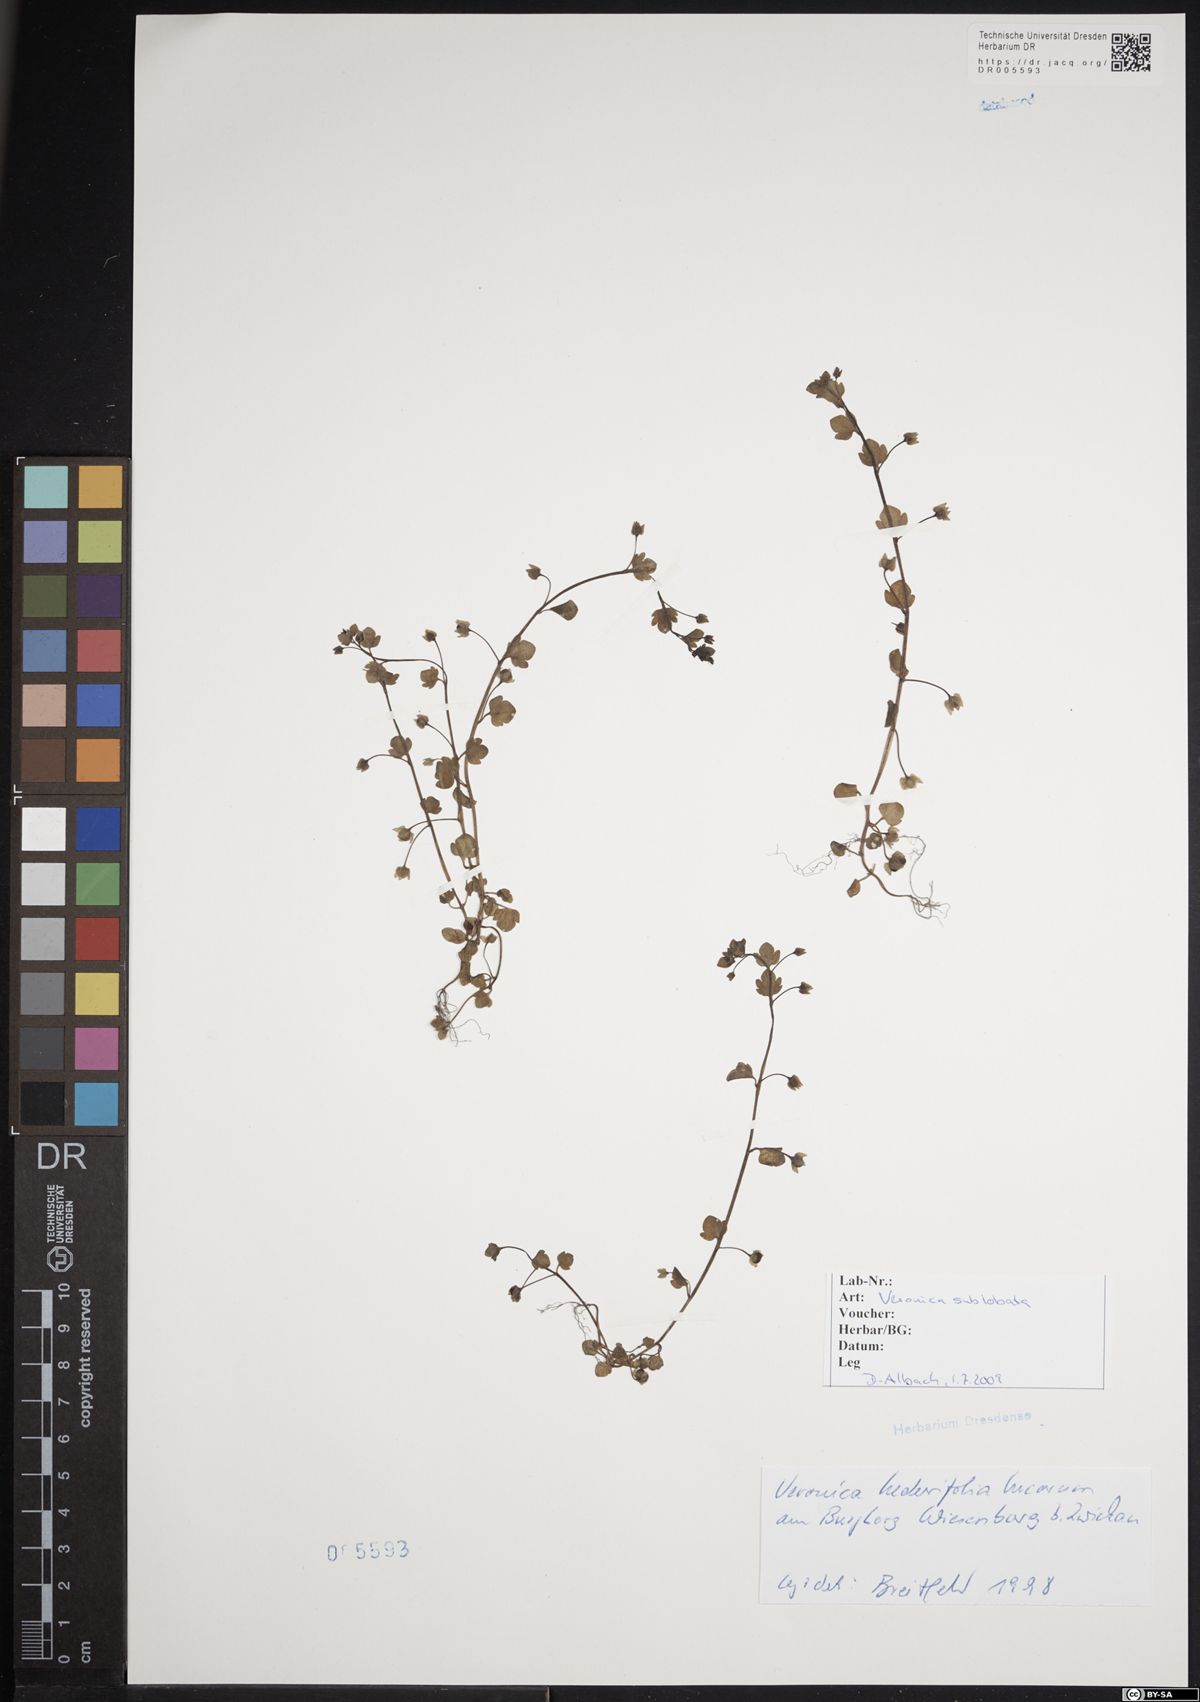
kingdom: Plantae
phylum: Tracheophyta
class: Magnoliopsida
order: Lamiales
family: Plantaginaceae
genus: Veronica
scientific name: Veronica sublobata
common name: False ivy-leaved speedwell
